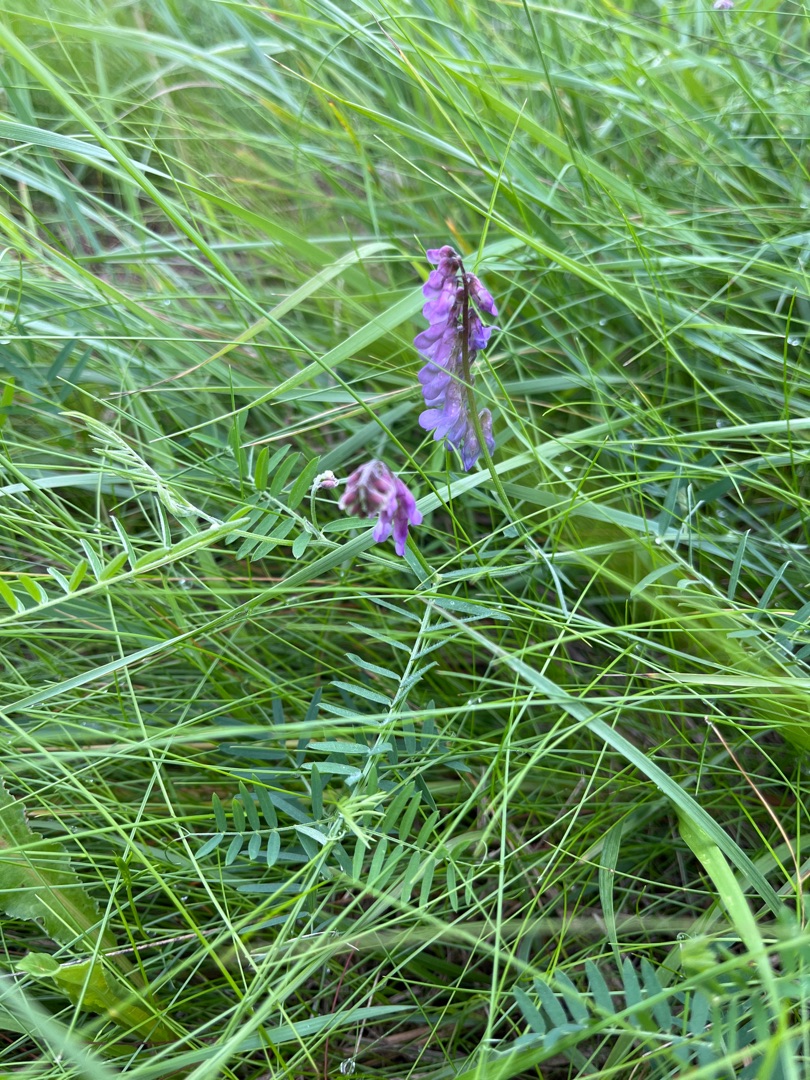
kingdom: Plantae
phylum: Tracheophyta
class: Magnoliopsida
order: Fabales
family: Fabaceae
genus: Vicia
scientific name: Vicia cracca
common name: Muse-vikke
